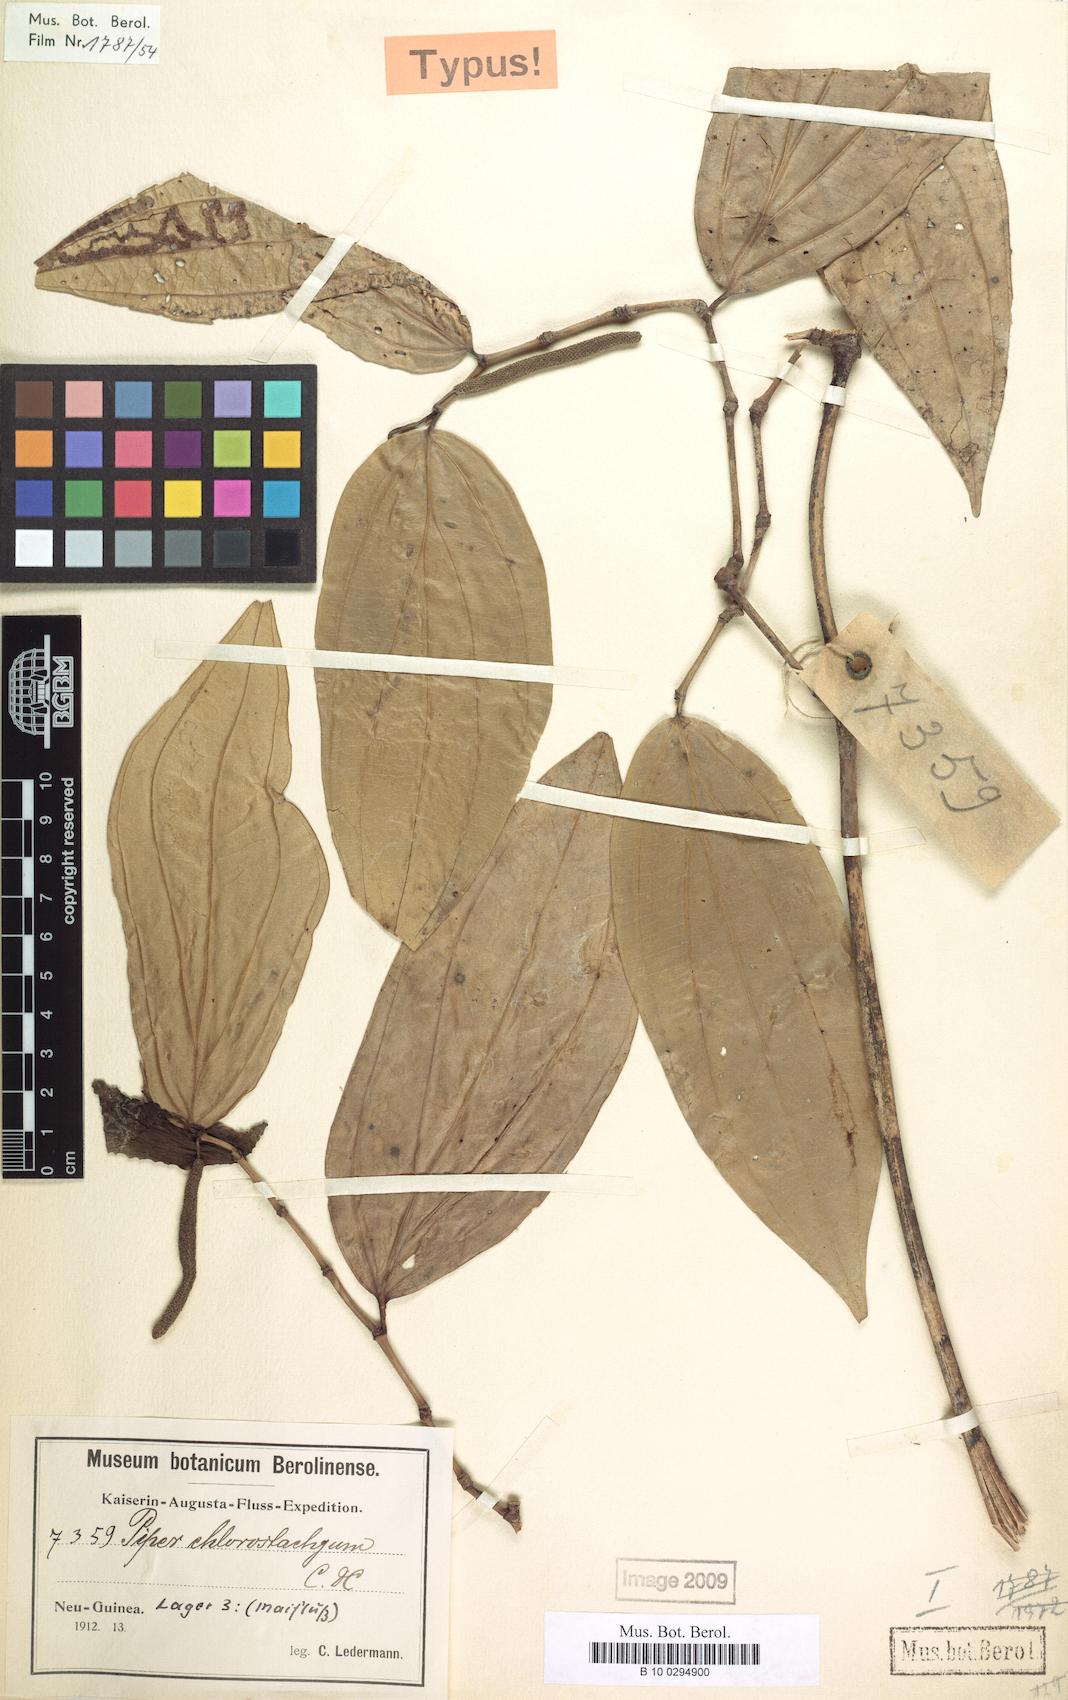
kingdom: Plantae
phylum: Tracheophyta
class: Magnoliopsida
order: Piperales
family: Piperaceae
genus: Piper
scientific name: Piper chlorostachyum
